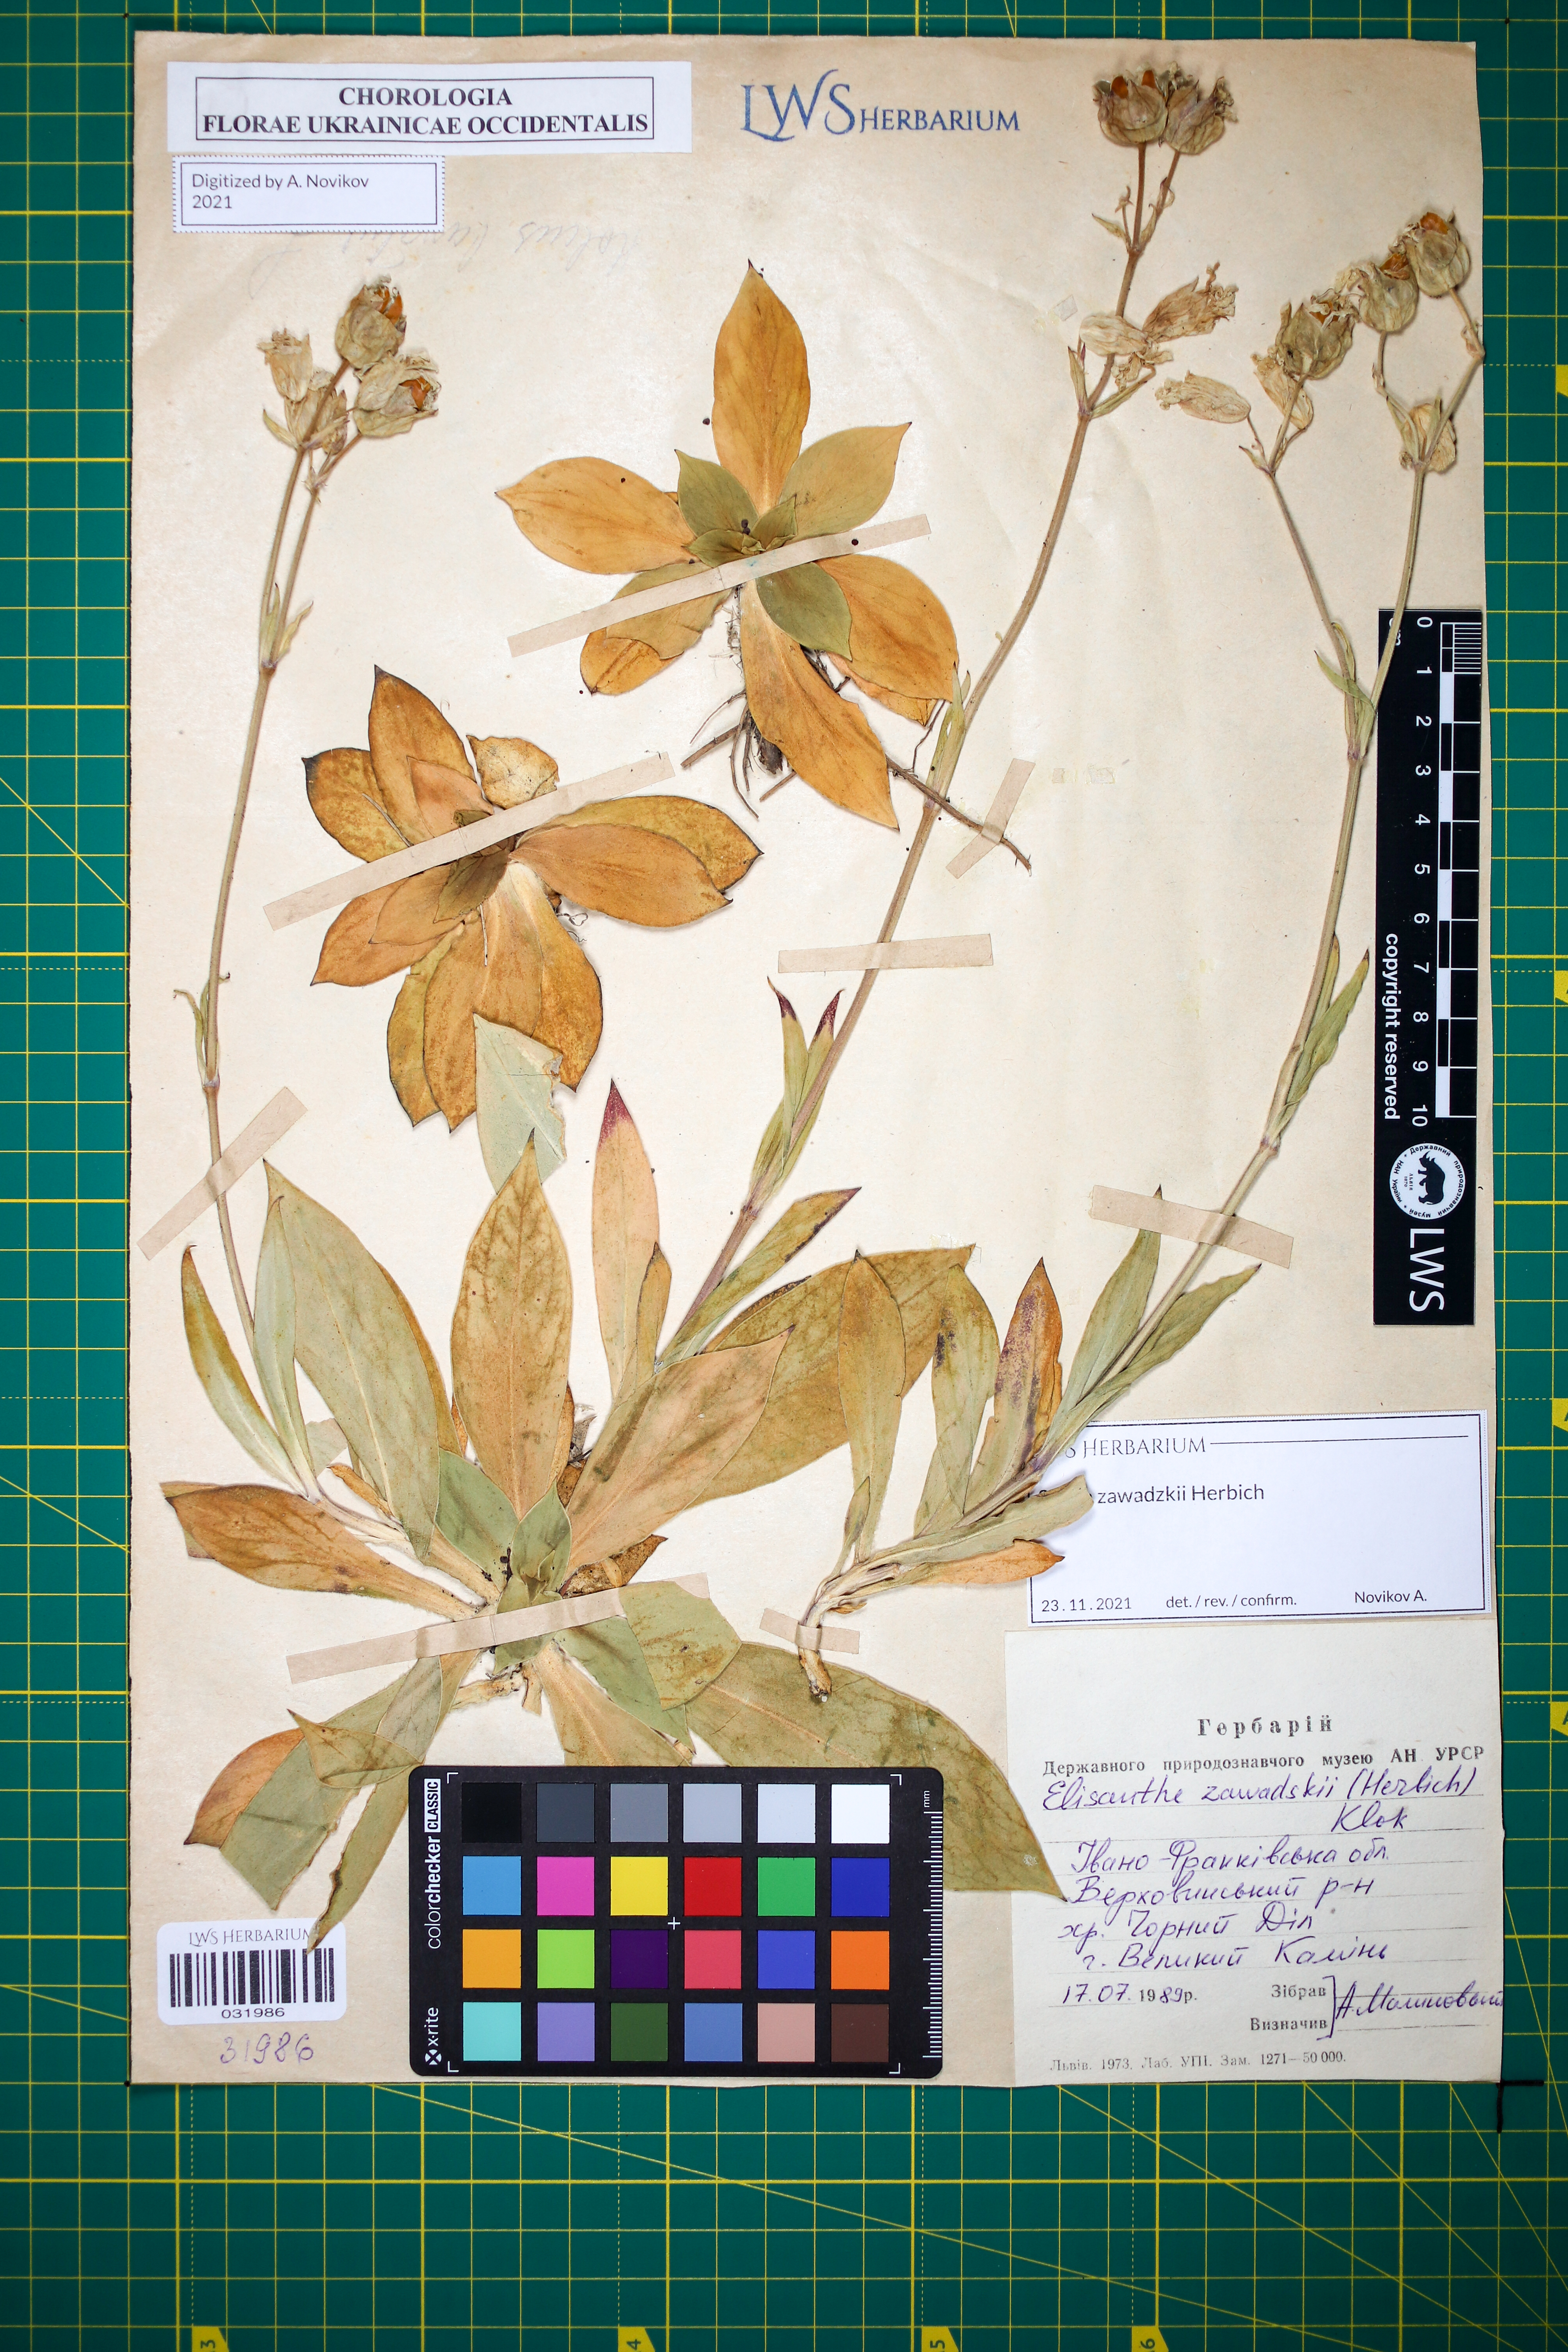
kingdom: Plantae
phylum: Tracheophyta
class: Magnoliopsida
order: Caryophyllales
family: Caryophyllaceae
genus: Silene
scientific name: Silene zawadzkii
